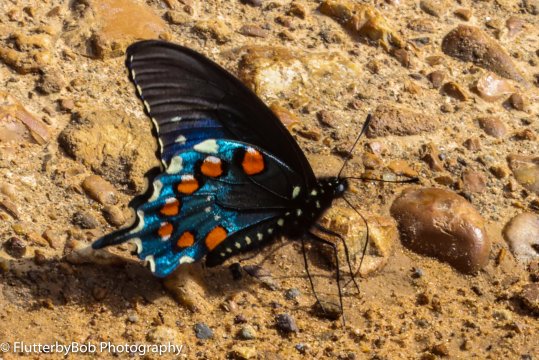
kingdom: Animalia
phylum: Arthropoda
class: Insecta
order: Lepidoptera
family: Papilionidae
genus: Battus
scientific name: Battus philenor
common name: Pipevine Swallowtail
